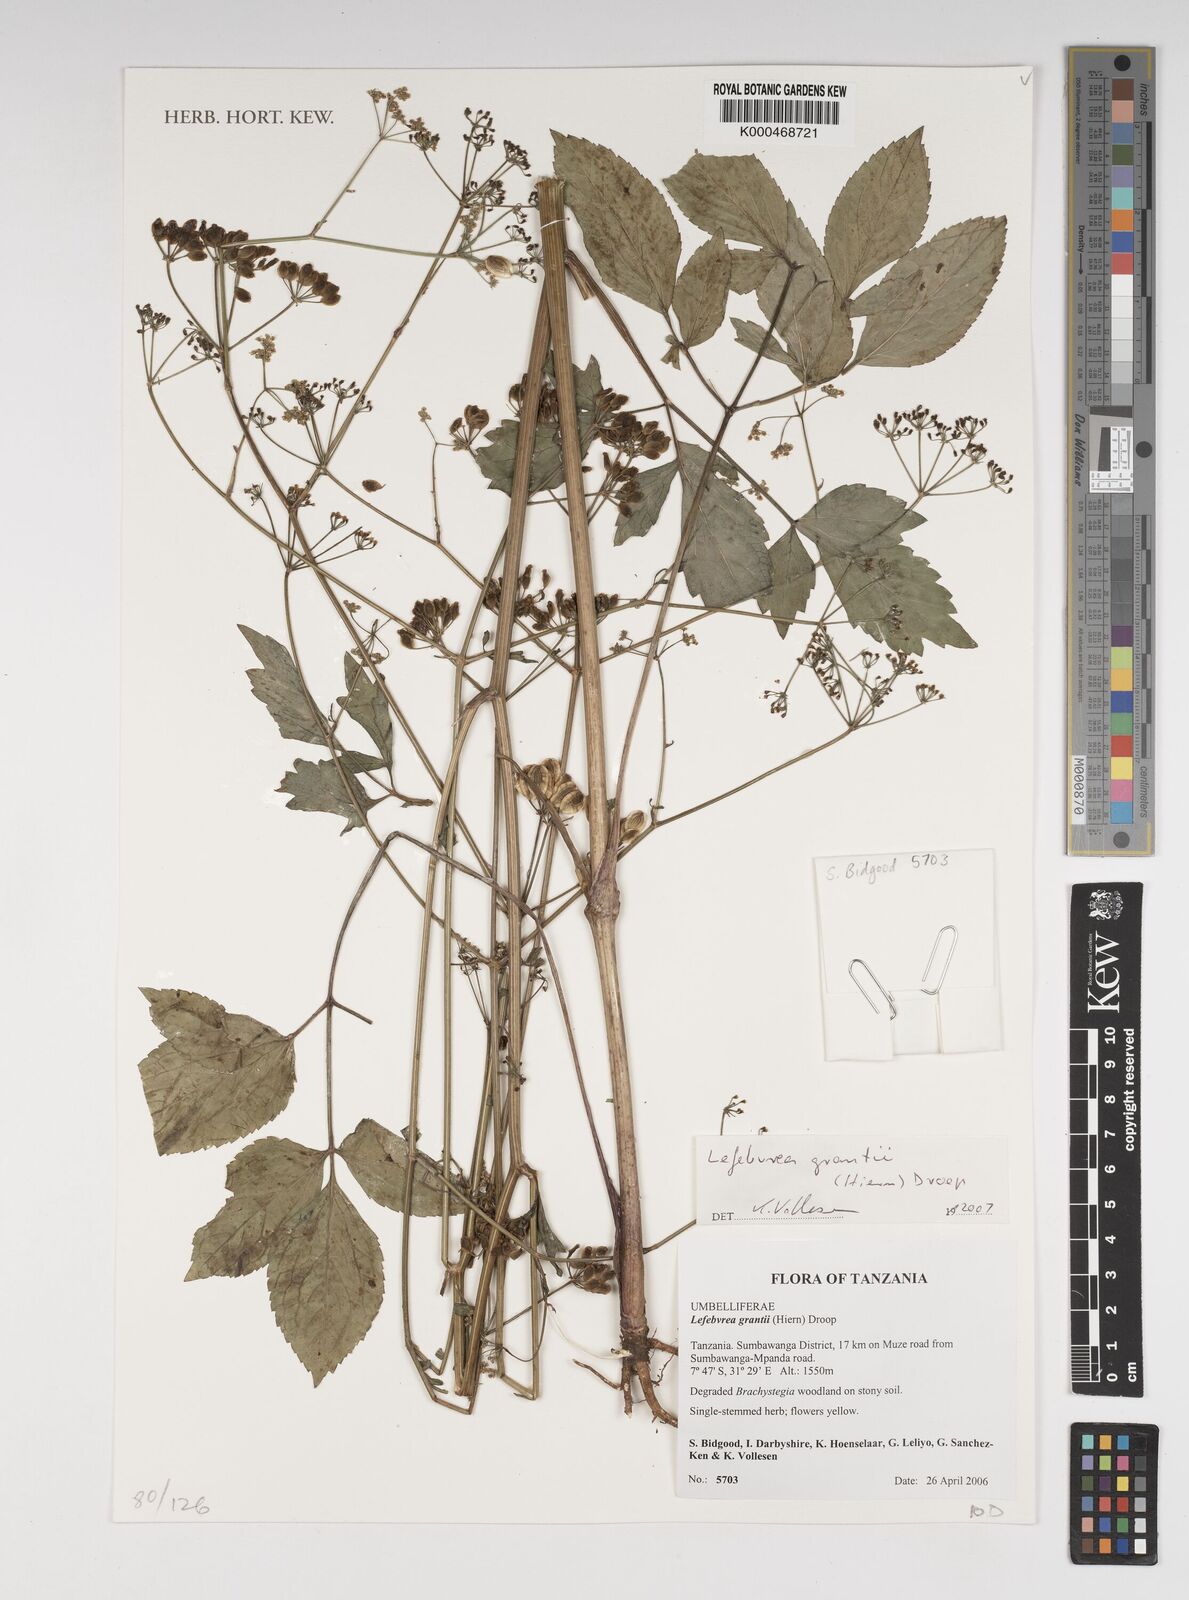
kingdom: Plantae
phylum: Tracheophyta
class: Magnoliopsida
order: Apiales
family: Apiaceae
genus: Lefebvrea
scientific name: Lefebvrea grantii
